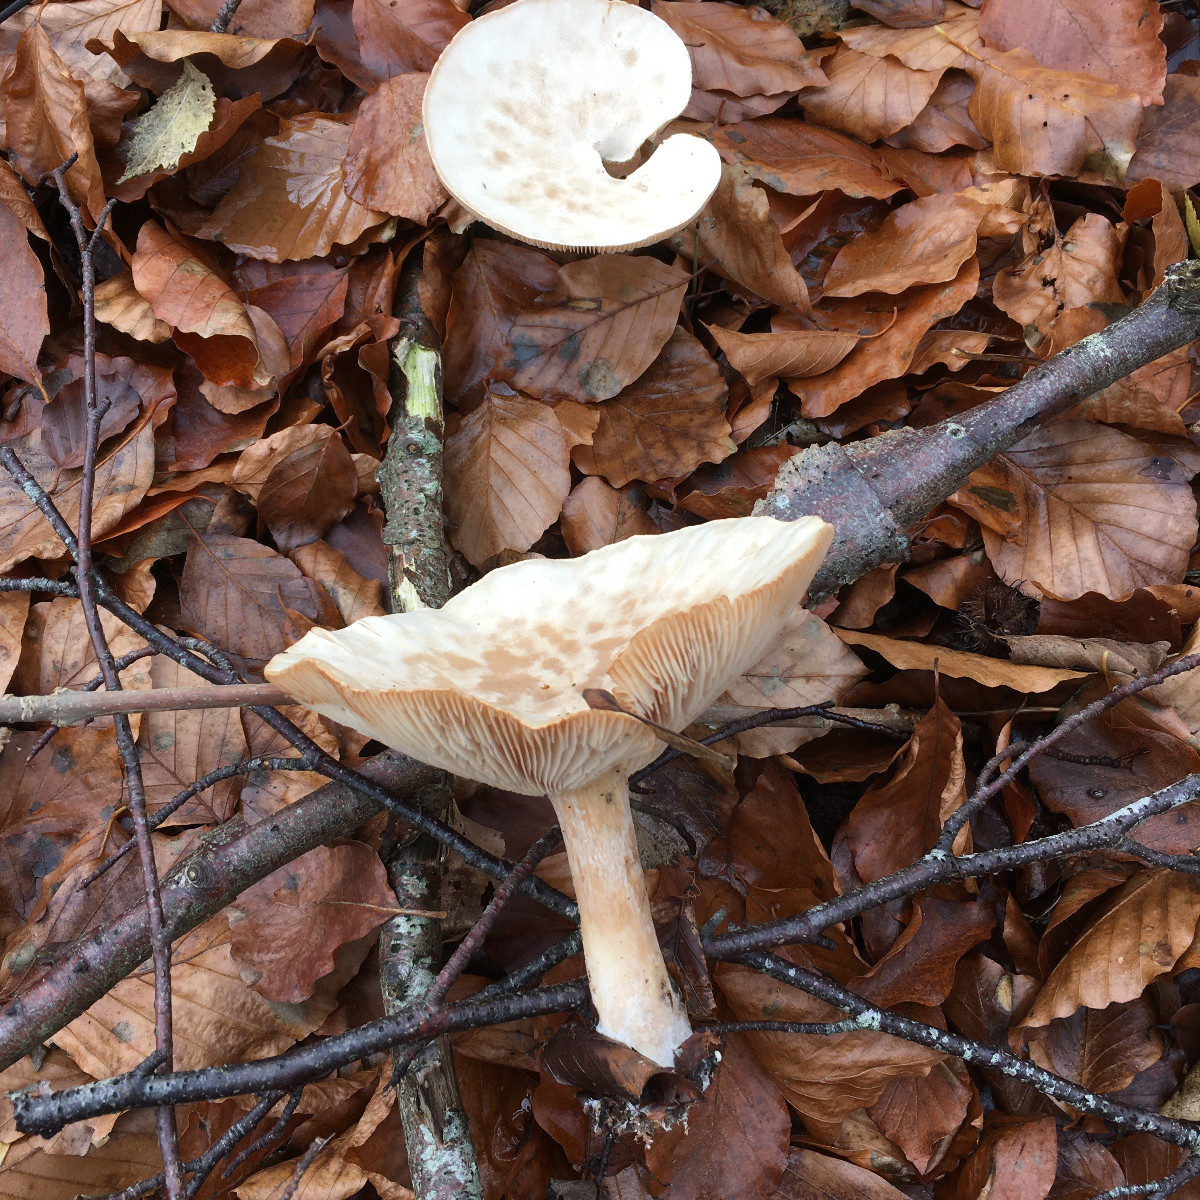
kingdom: Fungi
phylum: Basidiomycota
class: Agaricomycetes
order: Agaricales
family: Tricholomataceae
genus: Infundibulicybe
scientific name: Infundibulicybe geotropa
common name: stor tragthat
